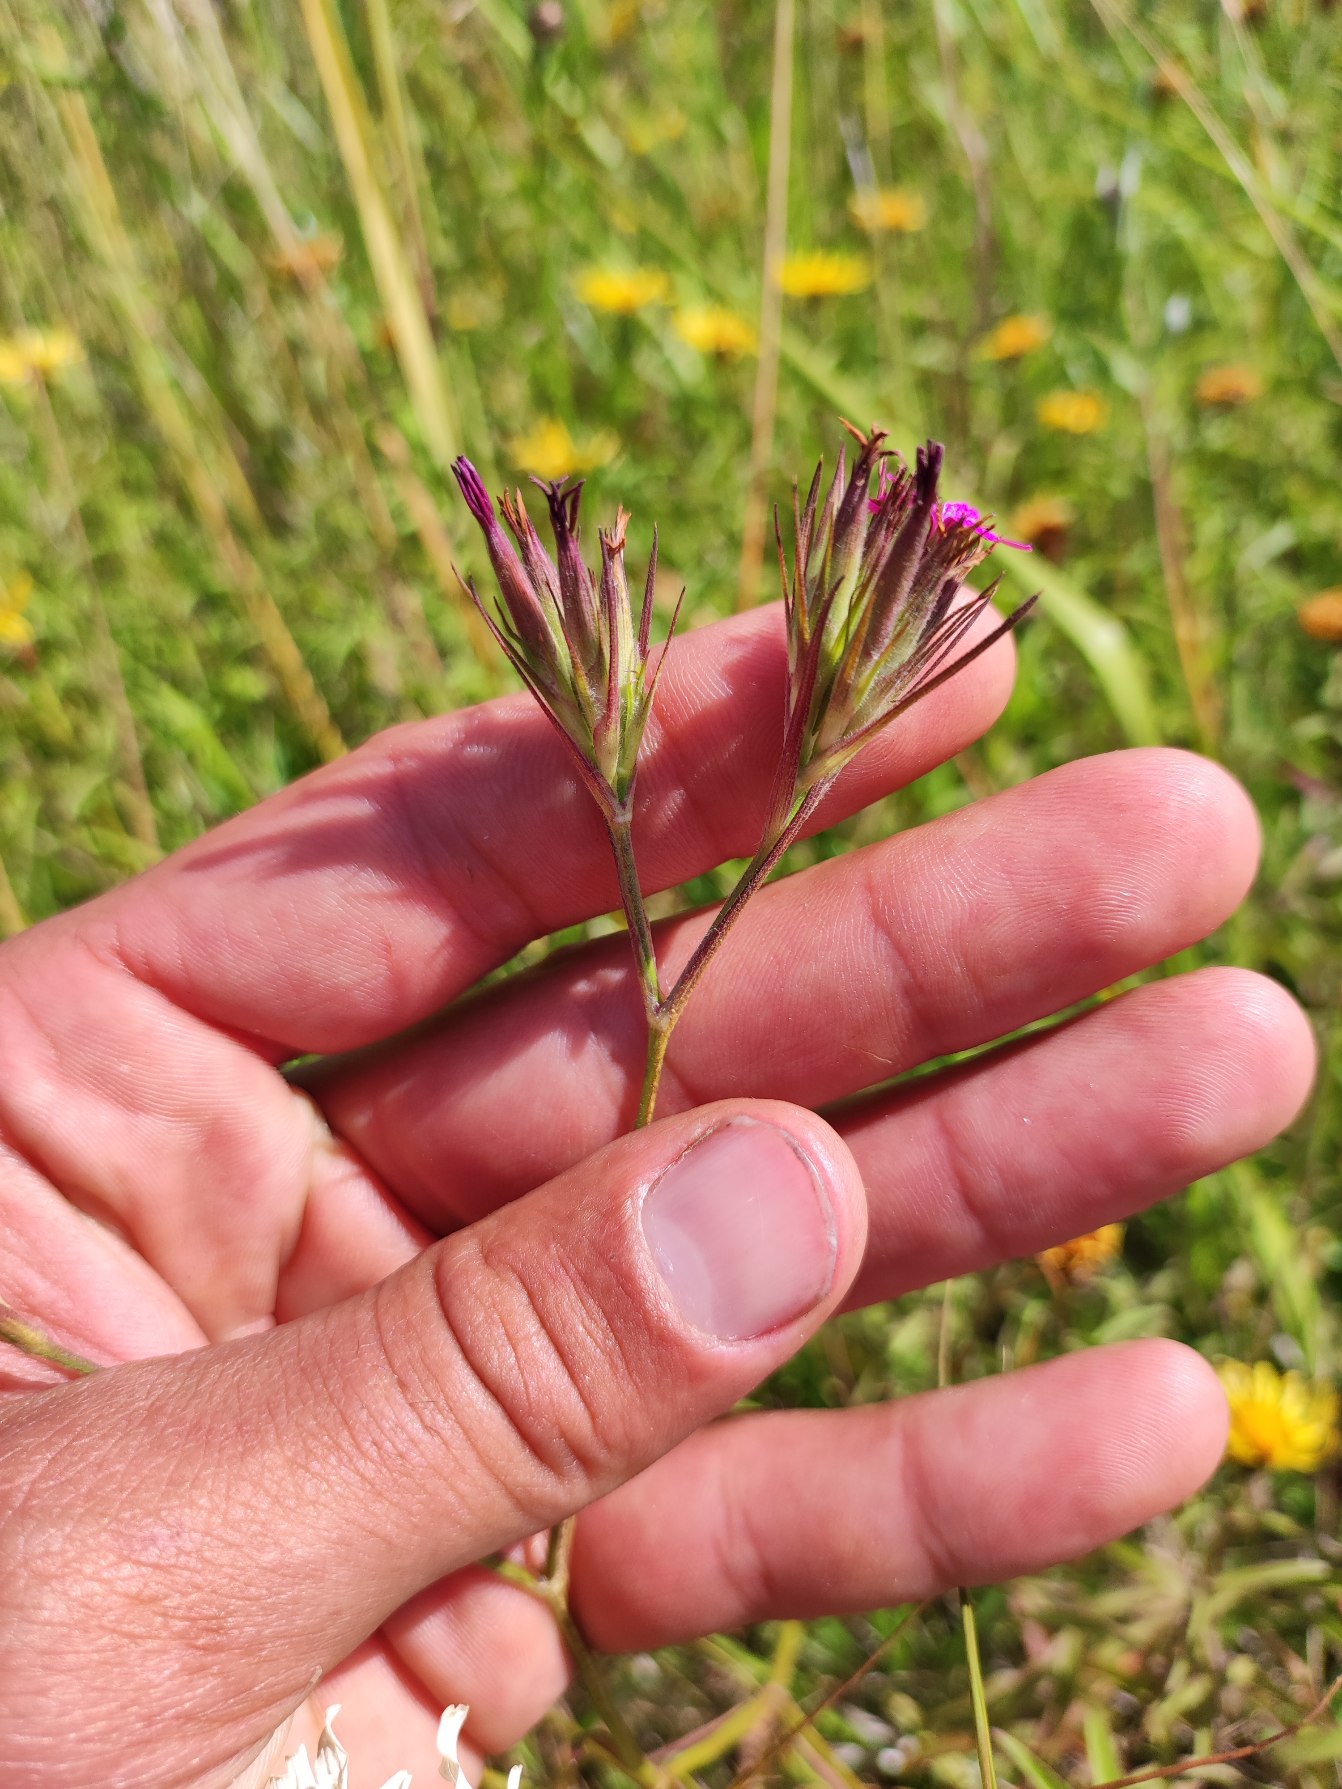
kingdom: Plantae
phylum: Tracheophyta
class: Magnoliopsida
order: Caryophyllales
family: Caryophyllaceae
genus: Dianthus
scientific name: Dianthus armeria
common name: Kost-nellike
